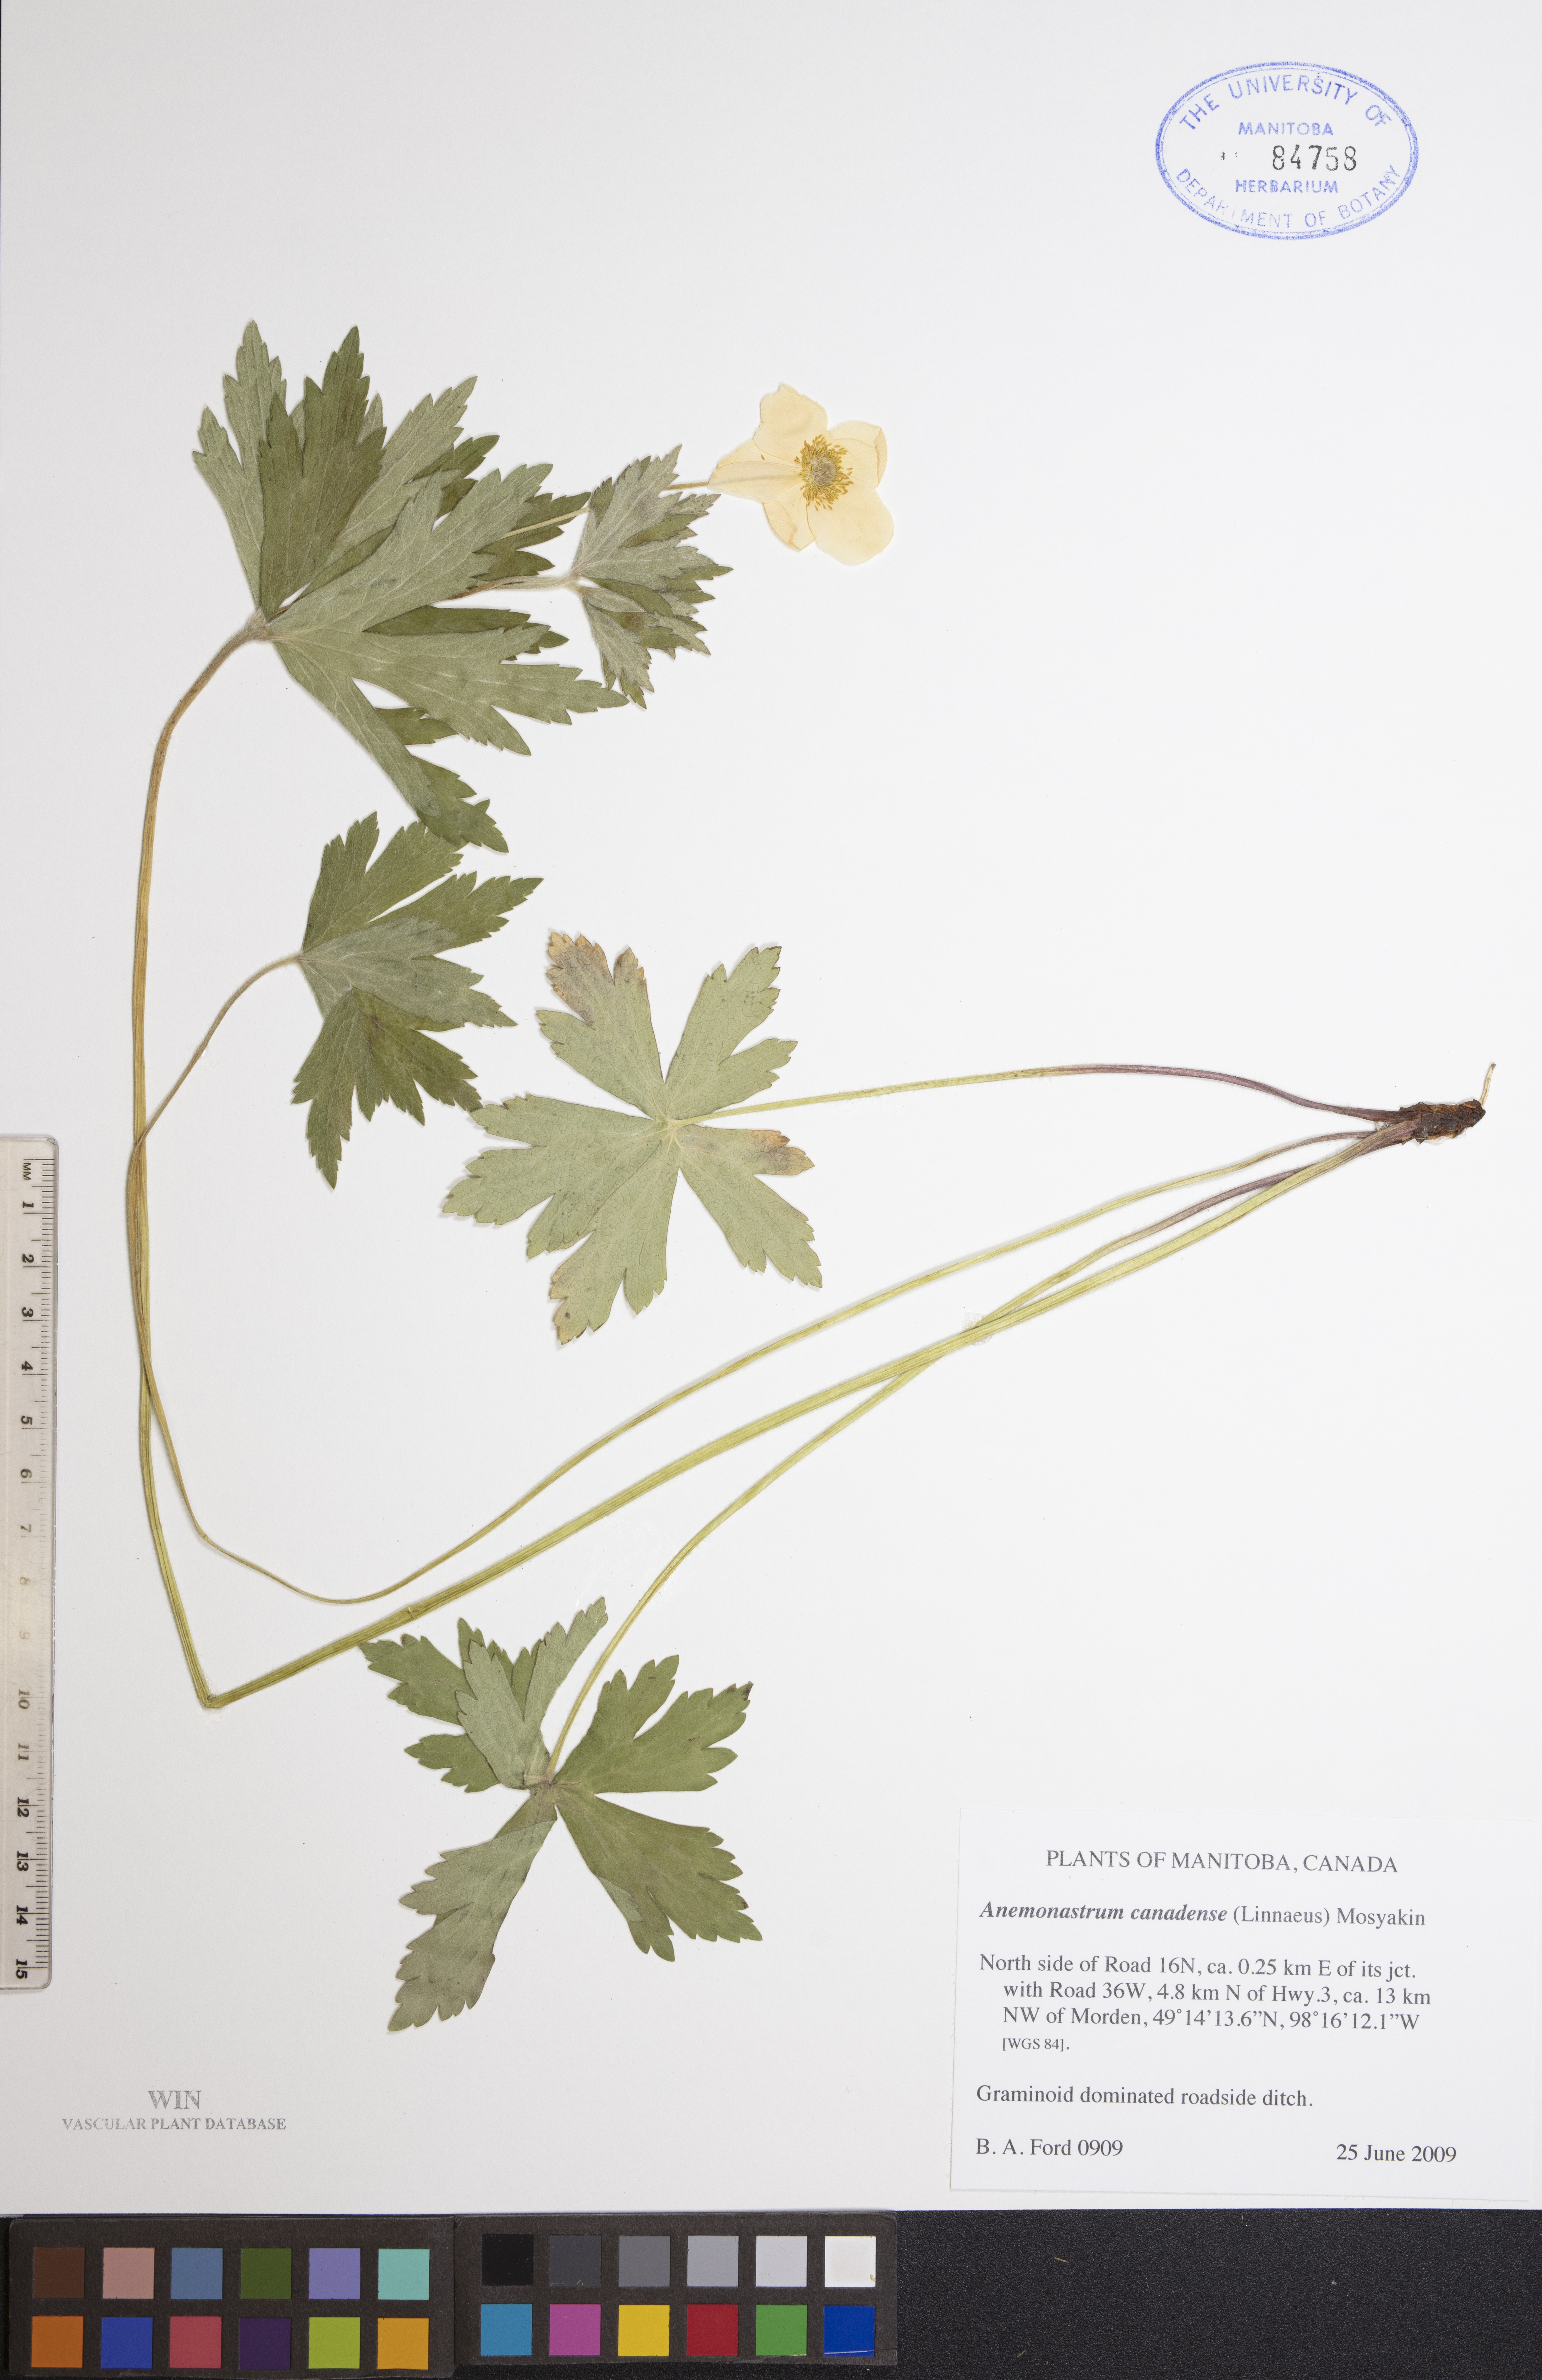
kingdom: Plantae
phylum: Tracheophyta
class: Magnoliopsida
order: Ranunculales
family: Ranunculaceae
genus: Anemonastrum
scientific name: Anemonastrum canadense
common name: Canada anemone
